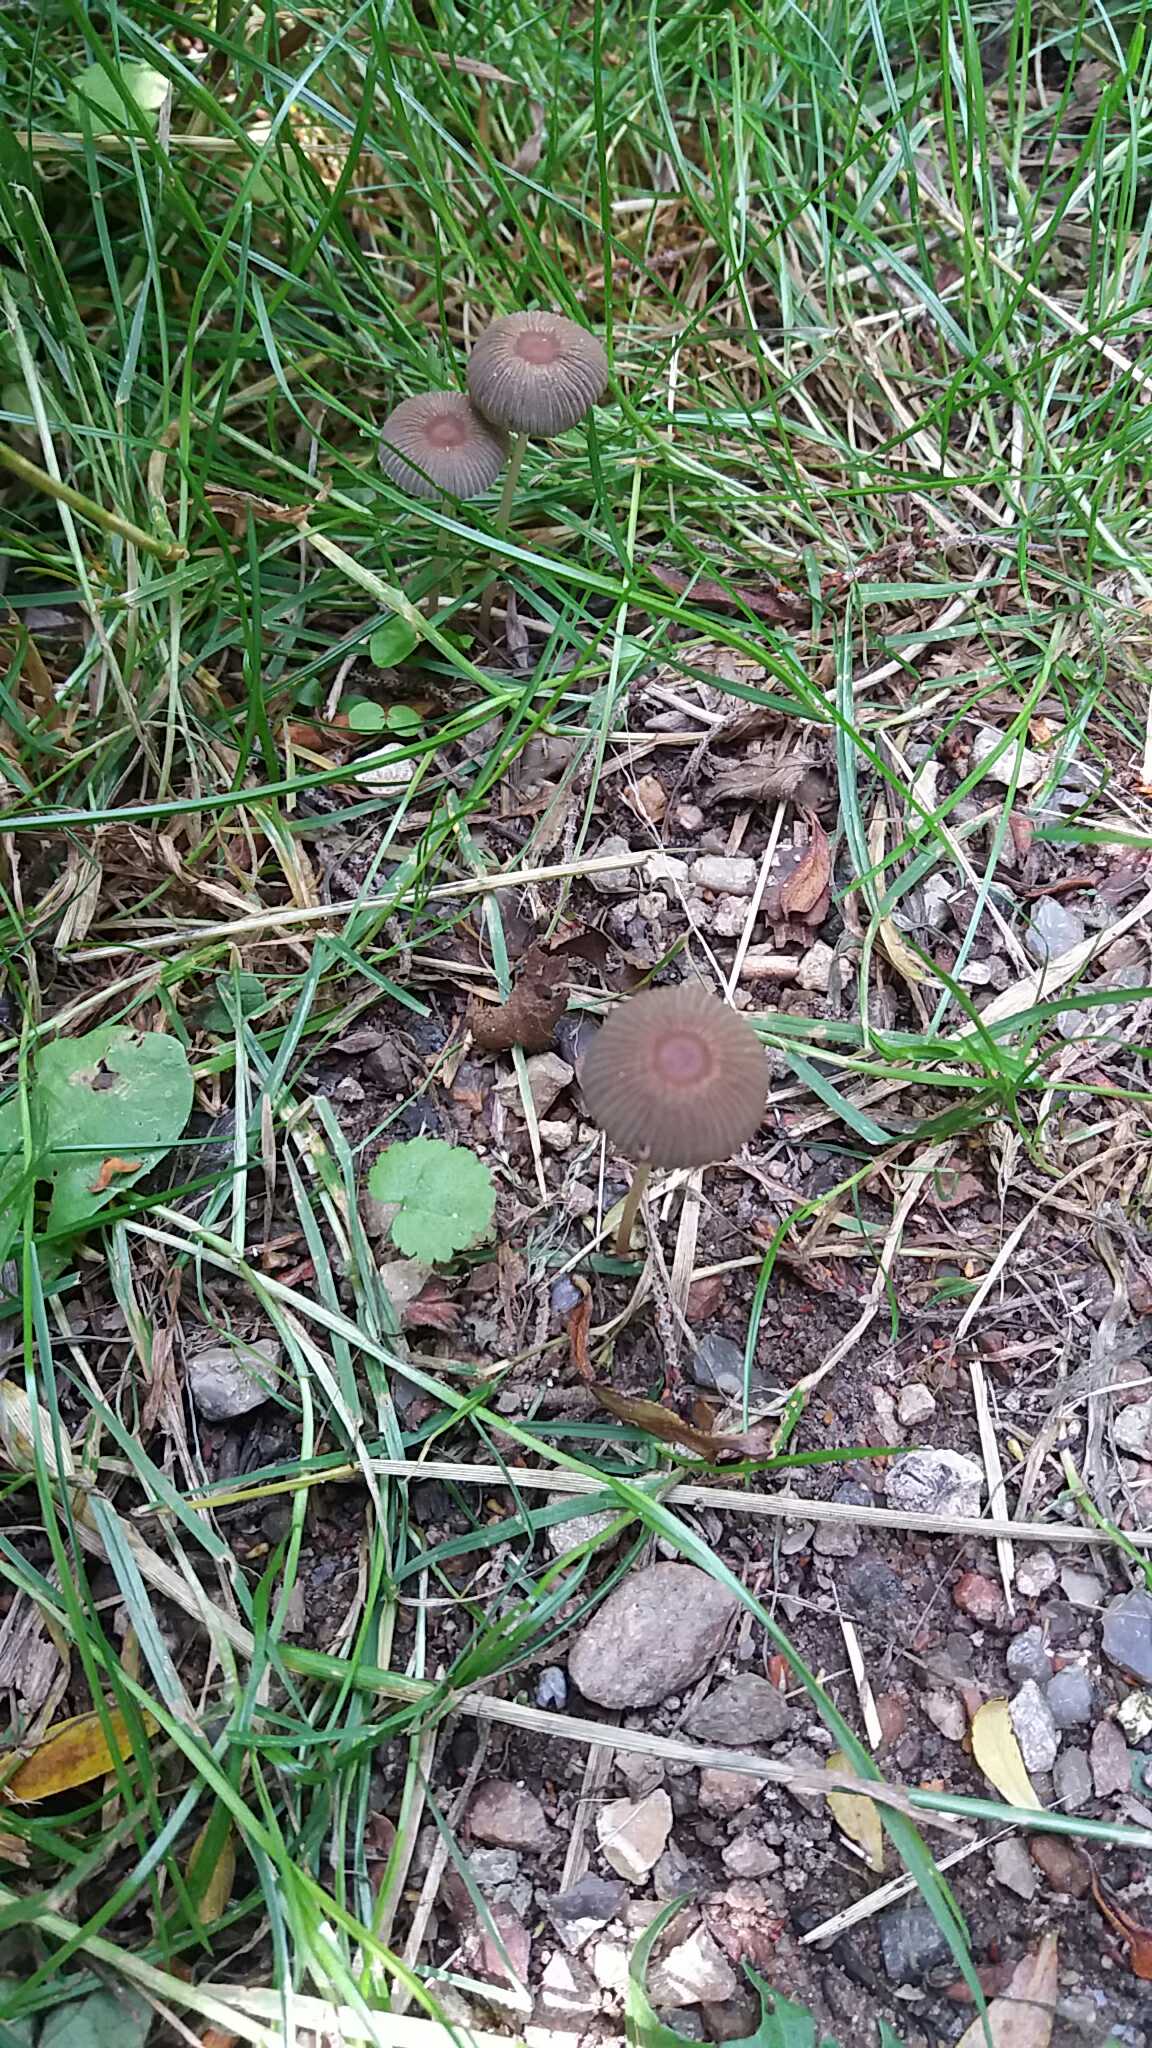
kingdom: Fungi
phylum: Basidiomycota
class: Agaricomycetes
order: Agaricales
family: Psathyrellaceae
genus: Parasola
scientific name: Parasola
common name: hjulhat
